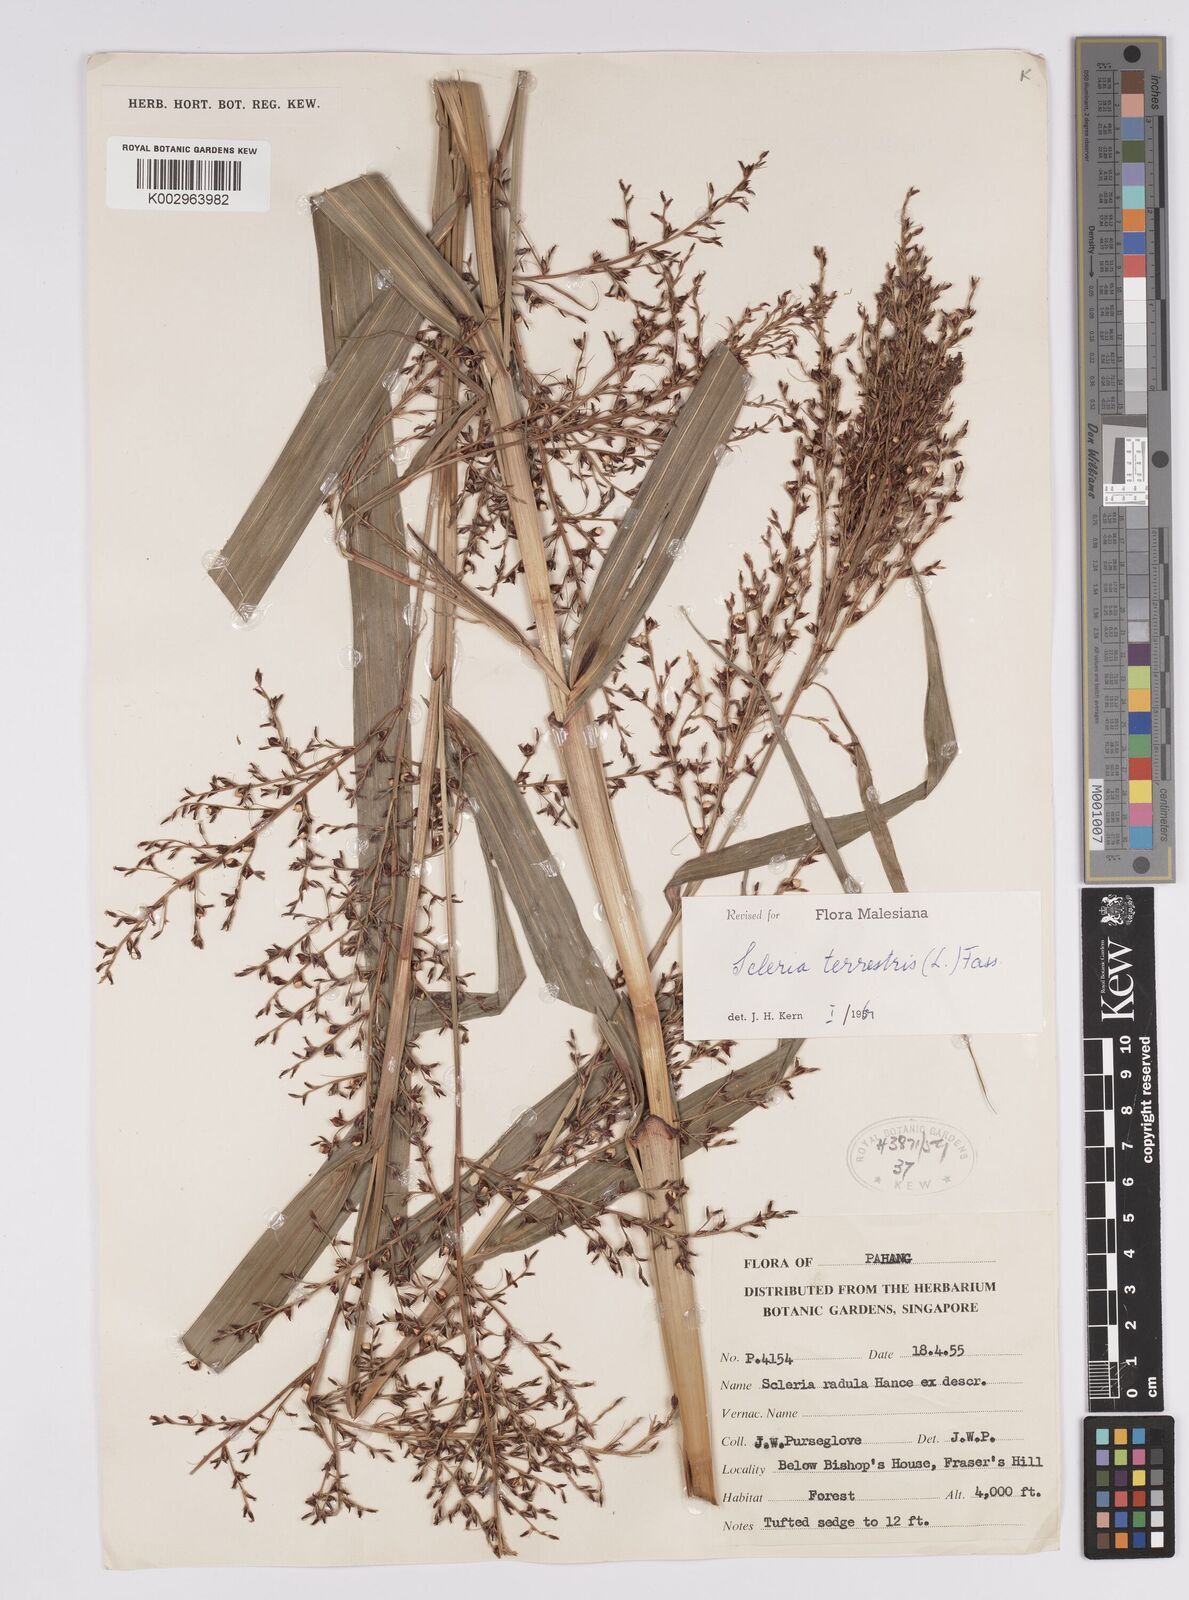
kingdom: Plantae
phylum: Tracheophyta
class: Liliopsida
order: Poales
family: Cyperaceae
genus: Scleria
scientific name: Scleria terrestris
